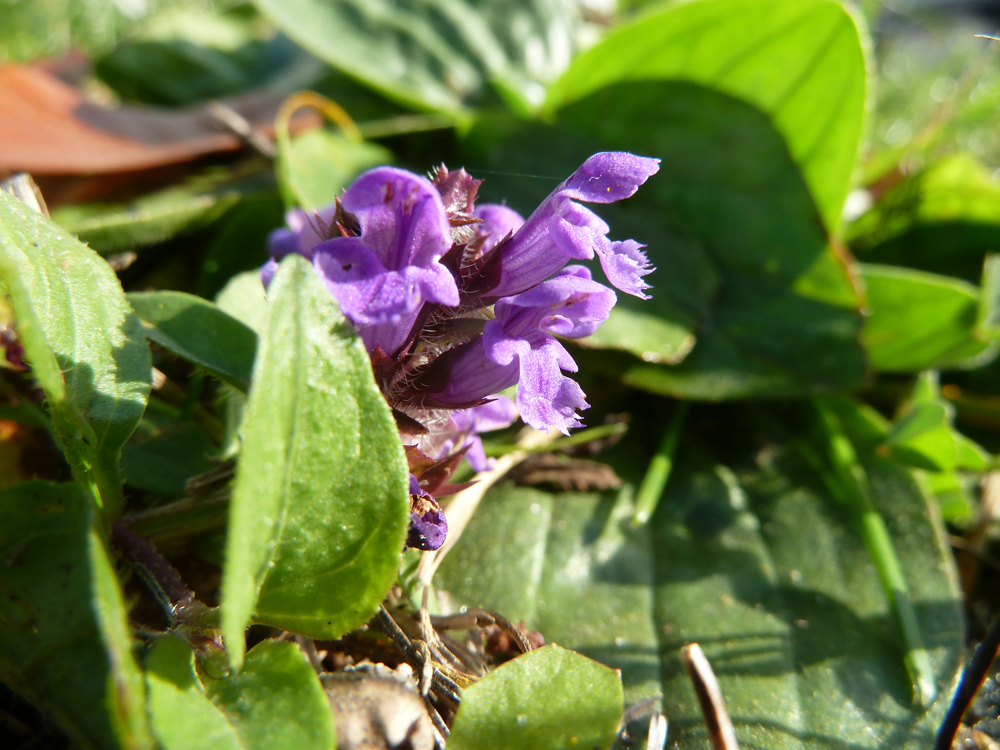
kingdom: Plantae
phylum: Tracheophyta
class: Magnoliopsida
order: Lamiales
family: Lamiaceae
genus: Prunella
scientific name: Prunella vulgaris
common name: Heal-all
